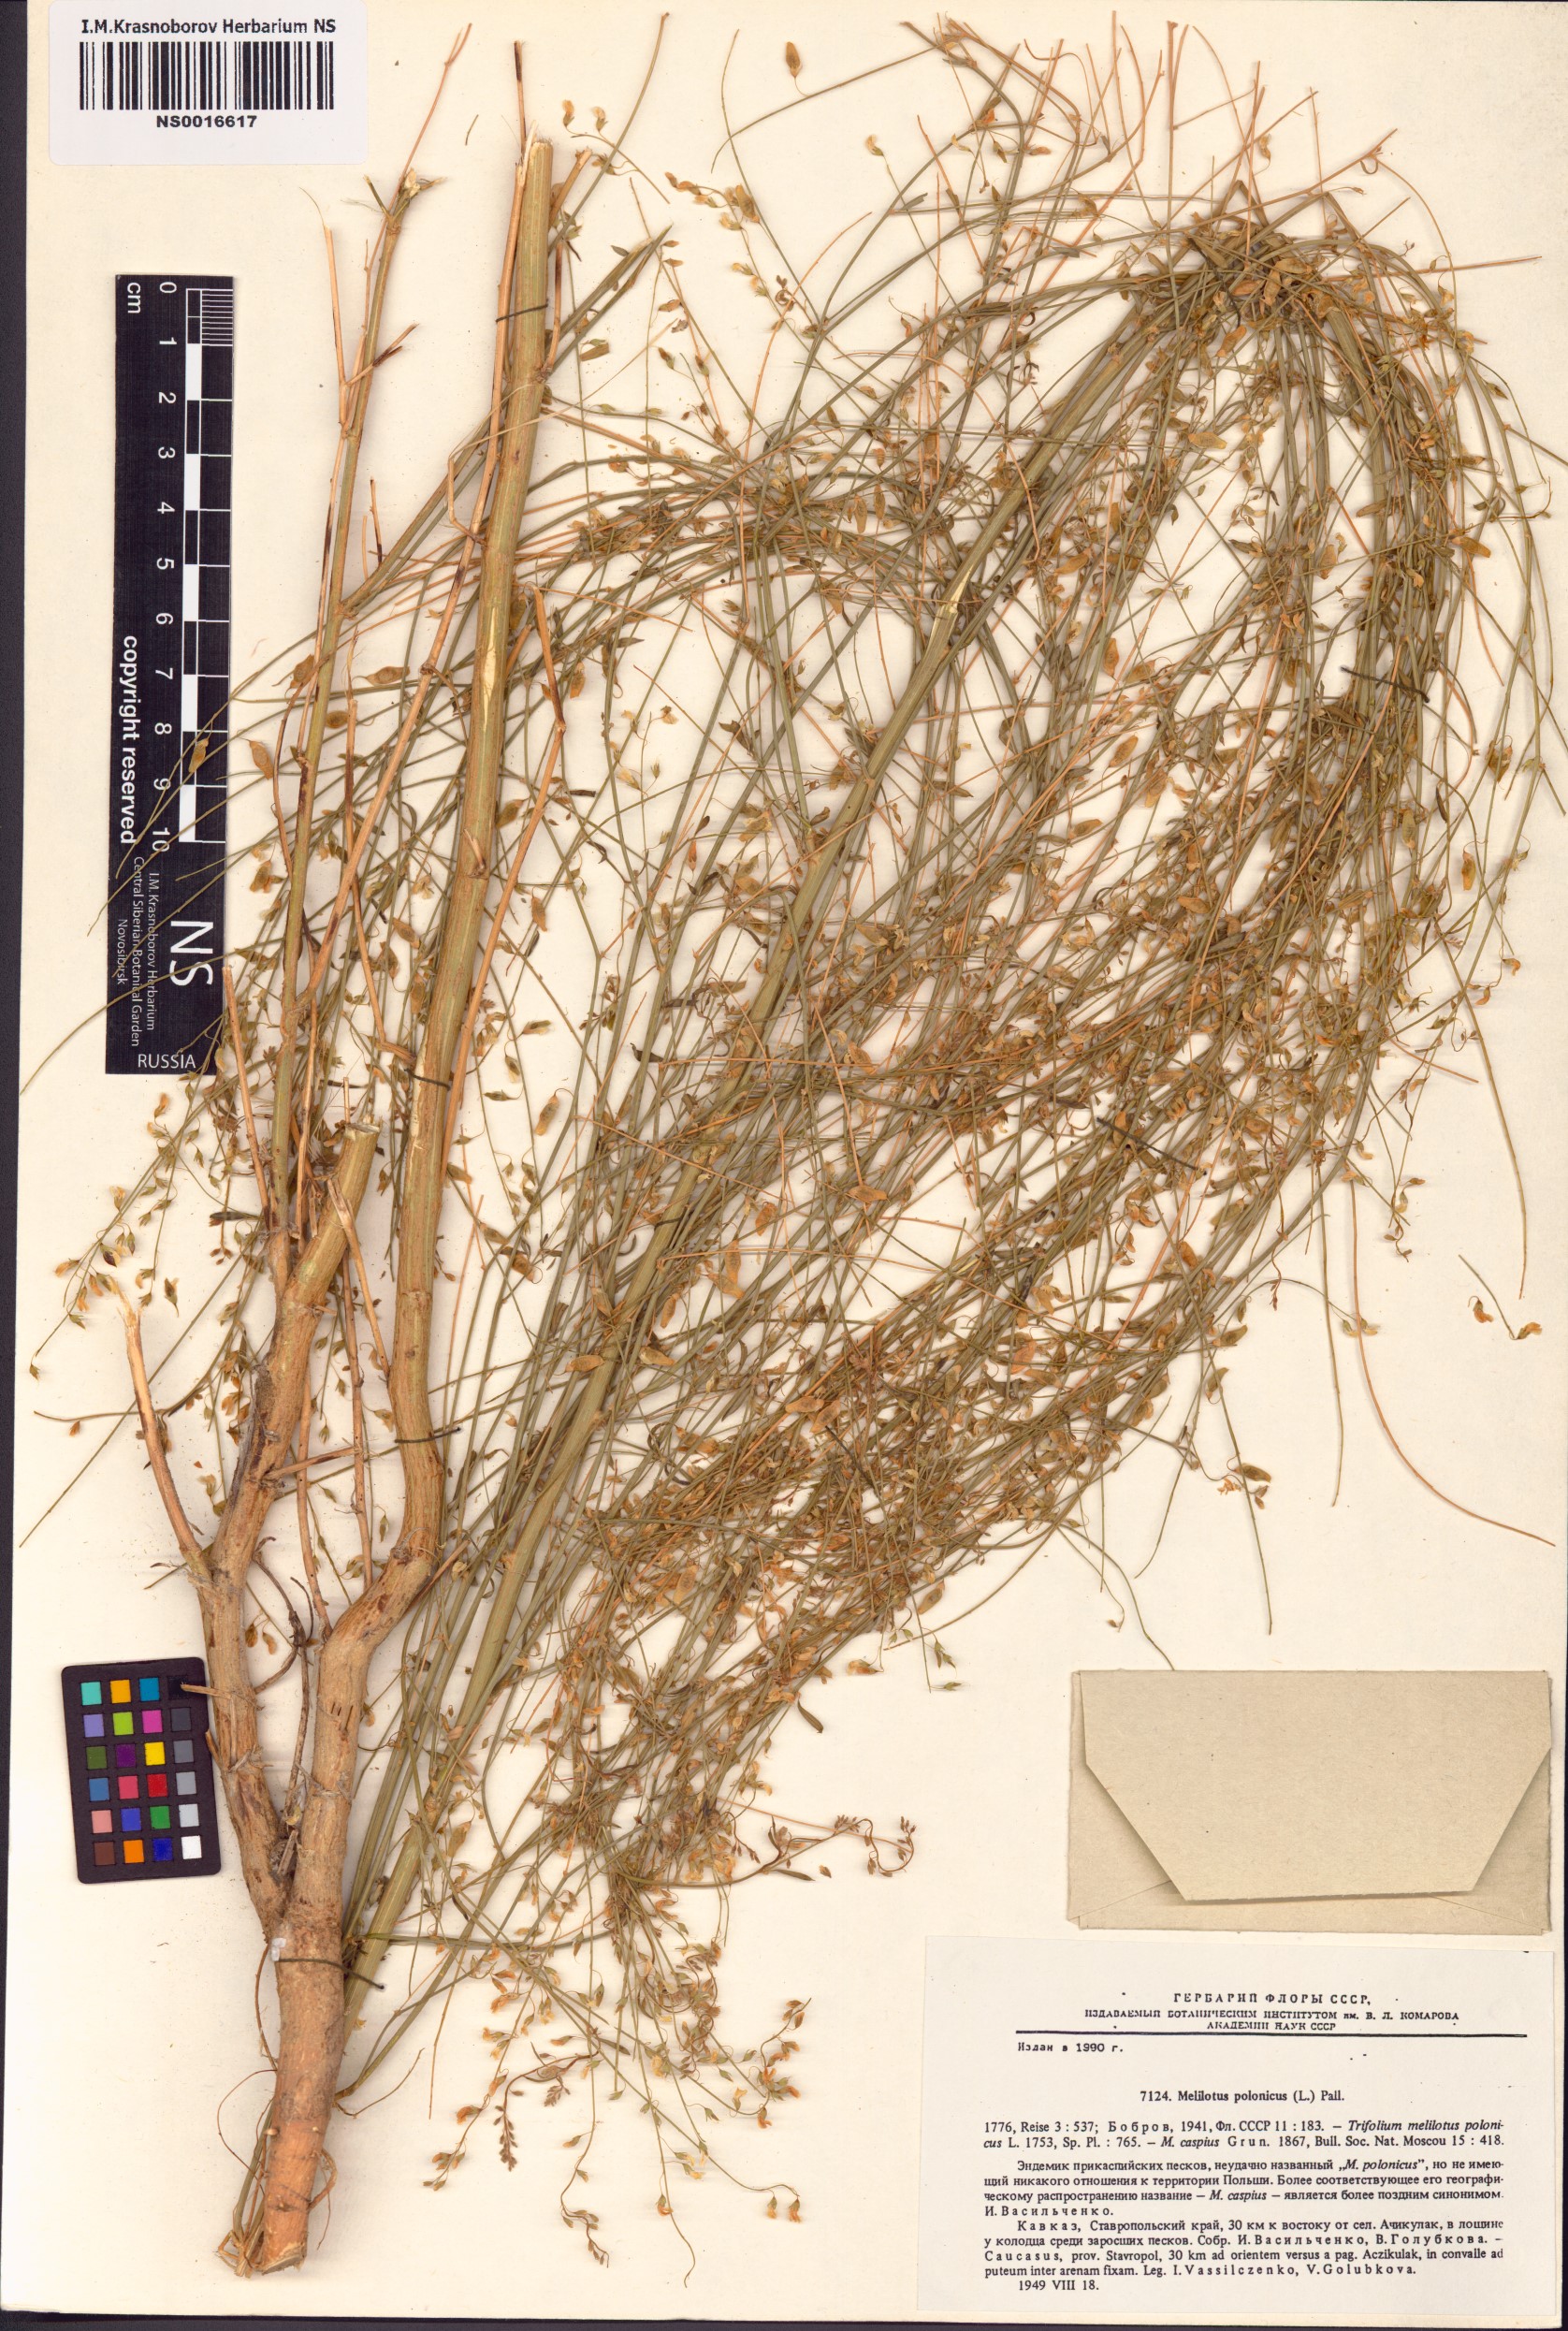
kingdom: Plantae
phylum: Tracheophyta
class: Magnoliopsida
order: Fabales
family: Fabaceae
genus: Melilotus
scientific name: Melilotus polonicus
